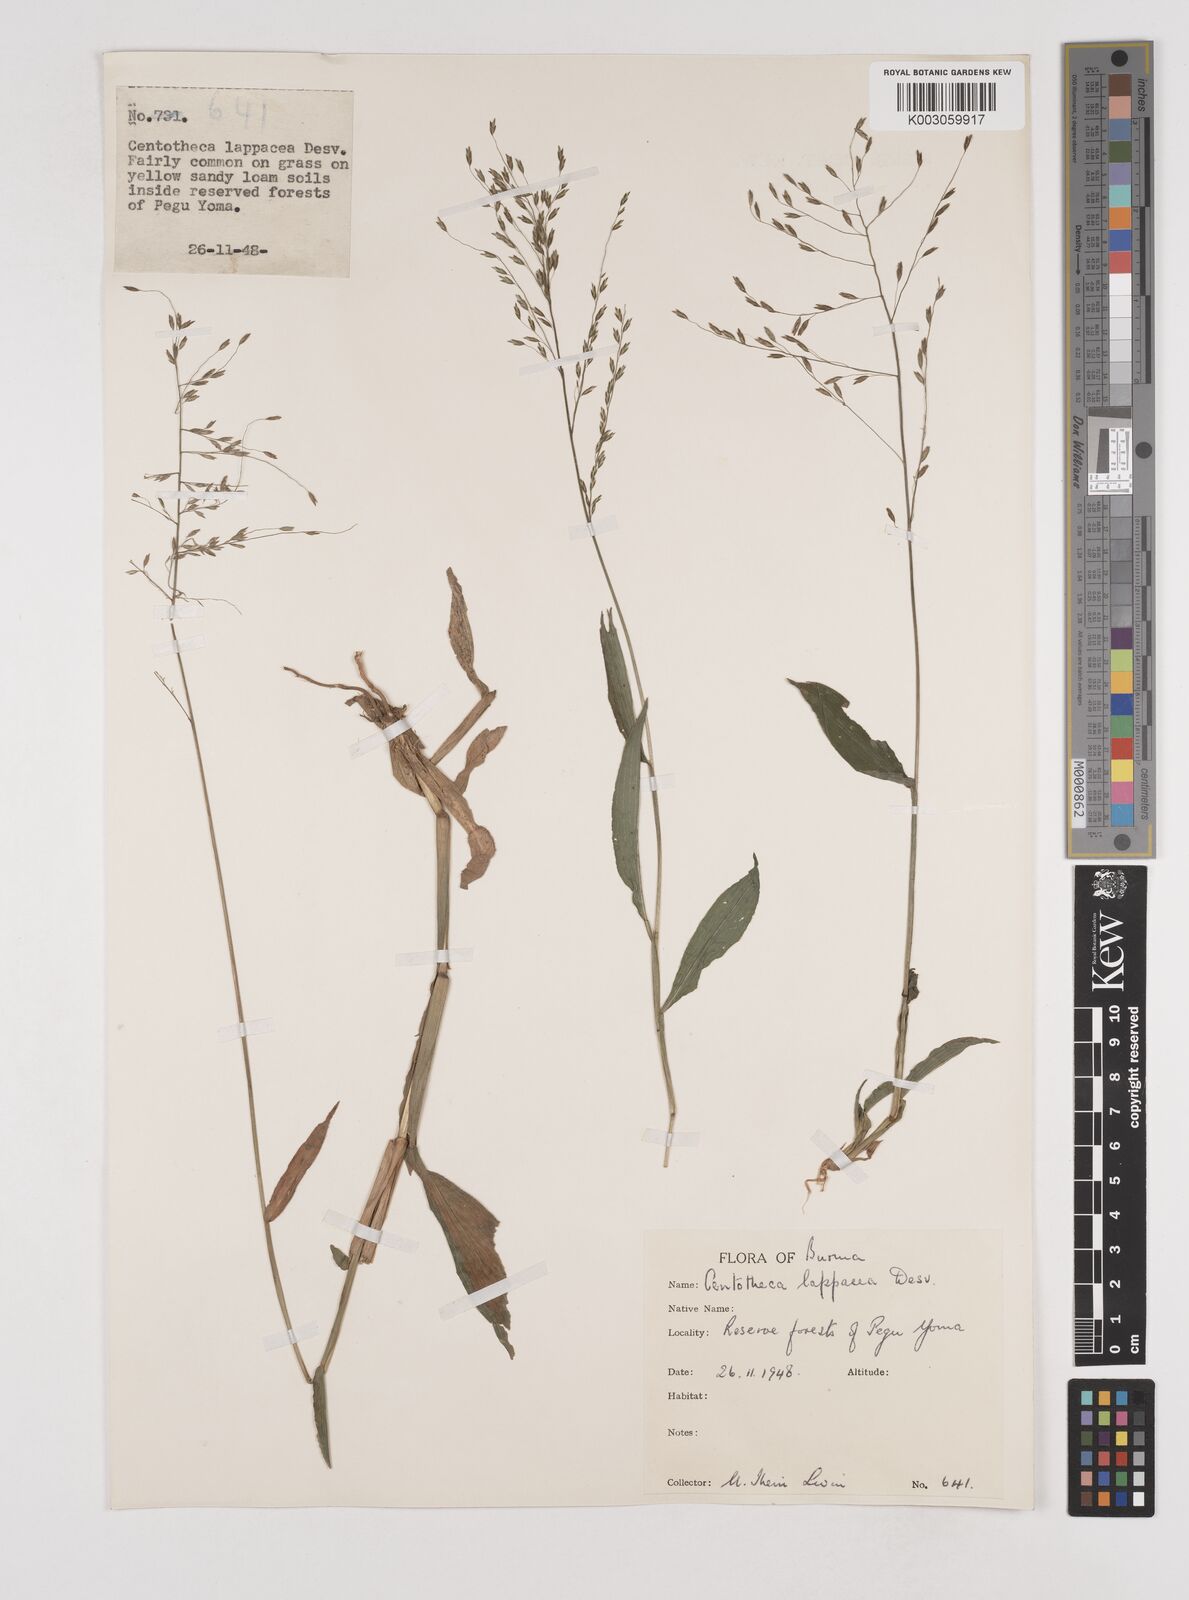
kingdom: Plantae
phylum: Tracheophyta
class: Liliopsida
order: Poales
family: Poaceae
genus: Centotheca
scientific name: Centotheca lappacea
